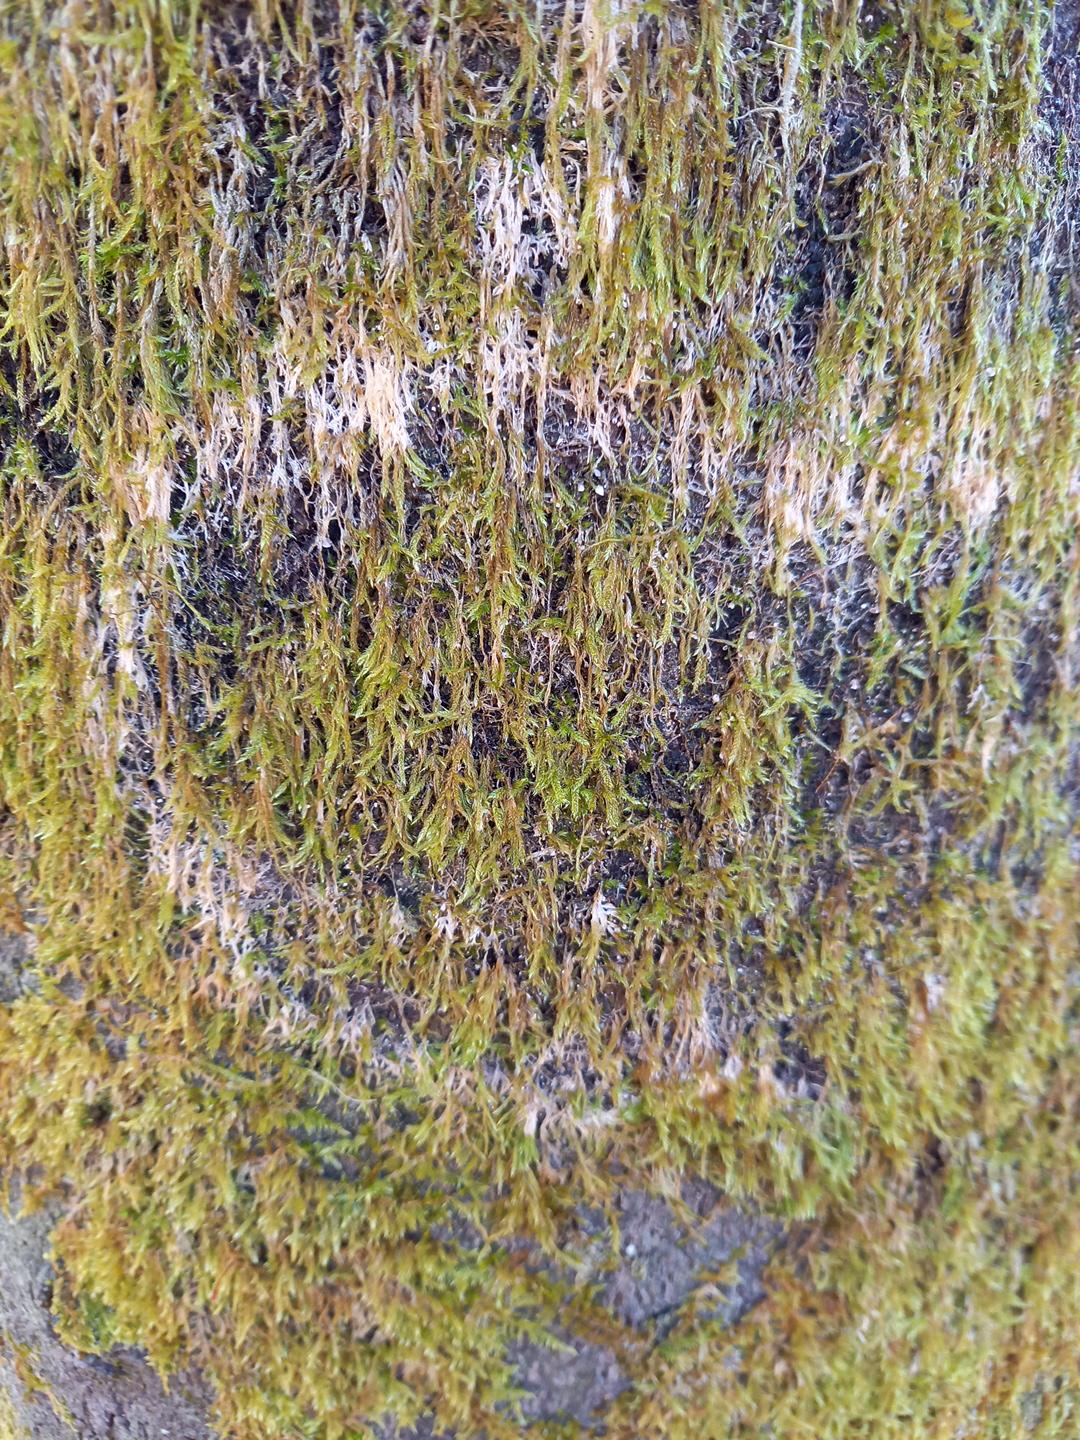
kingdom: Fungi
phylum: Basidiomycota
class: Agaricomycetes
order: Agaricales
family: Chromocyphellaceae
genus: Chromocyphella
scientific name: Chromocyphella muscicola
